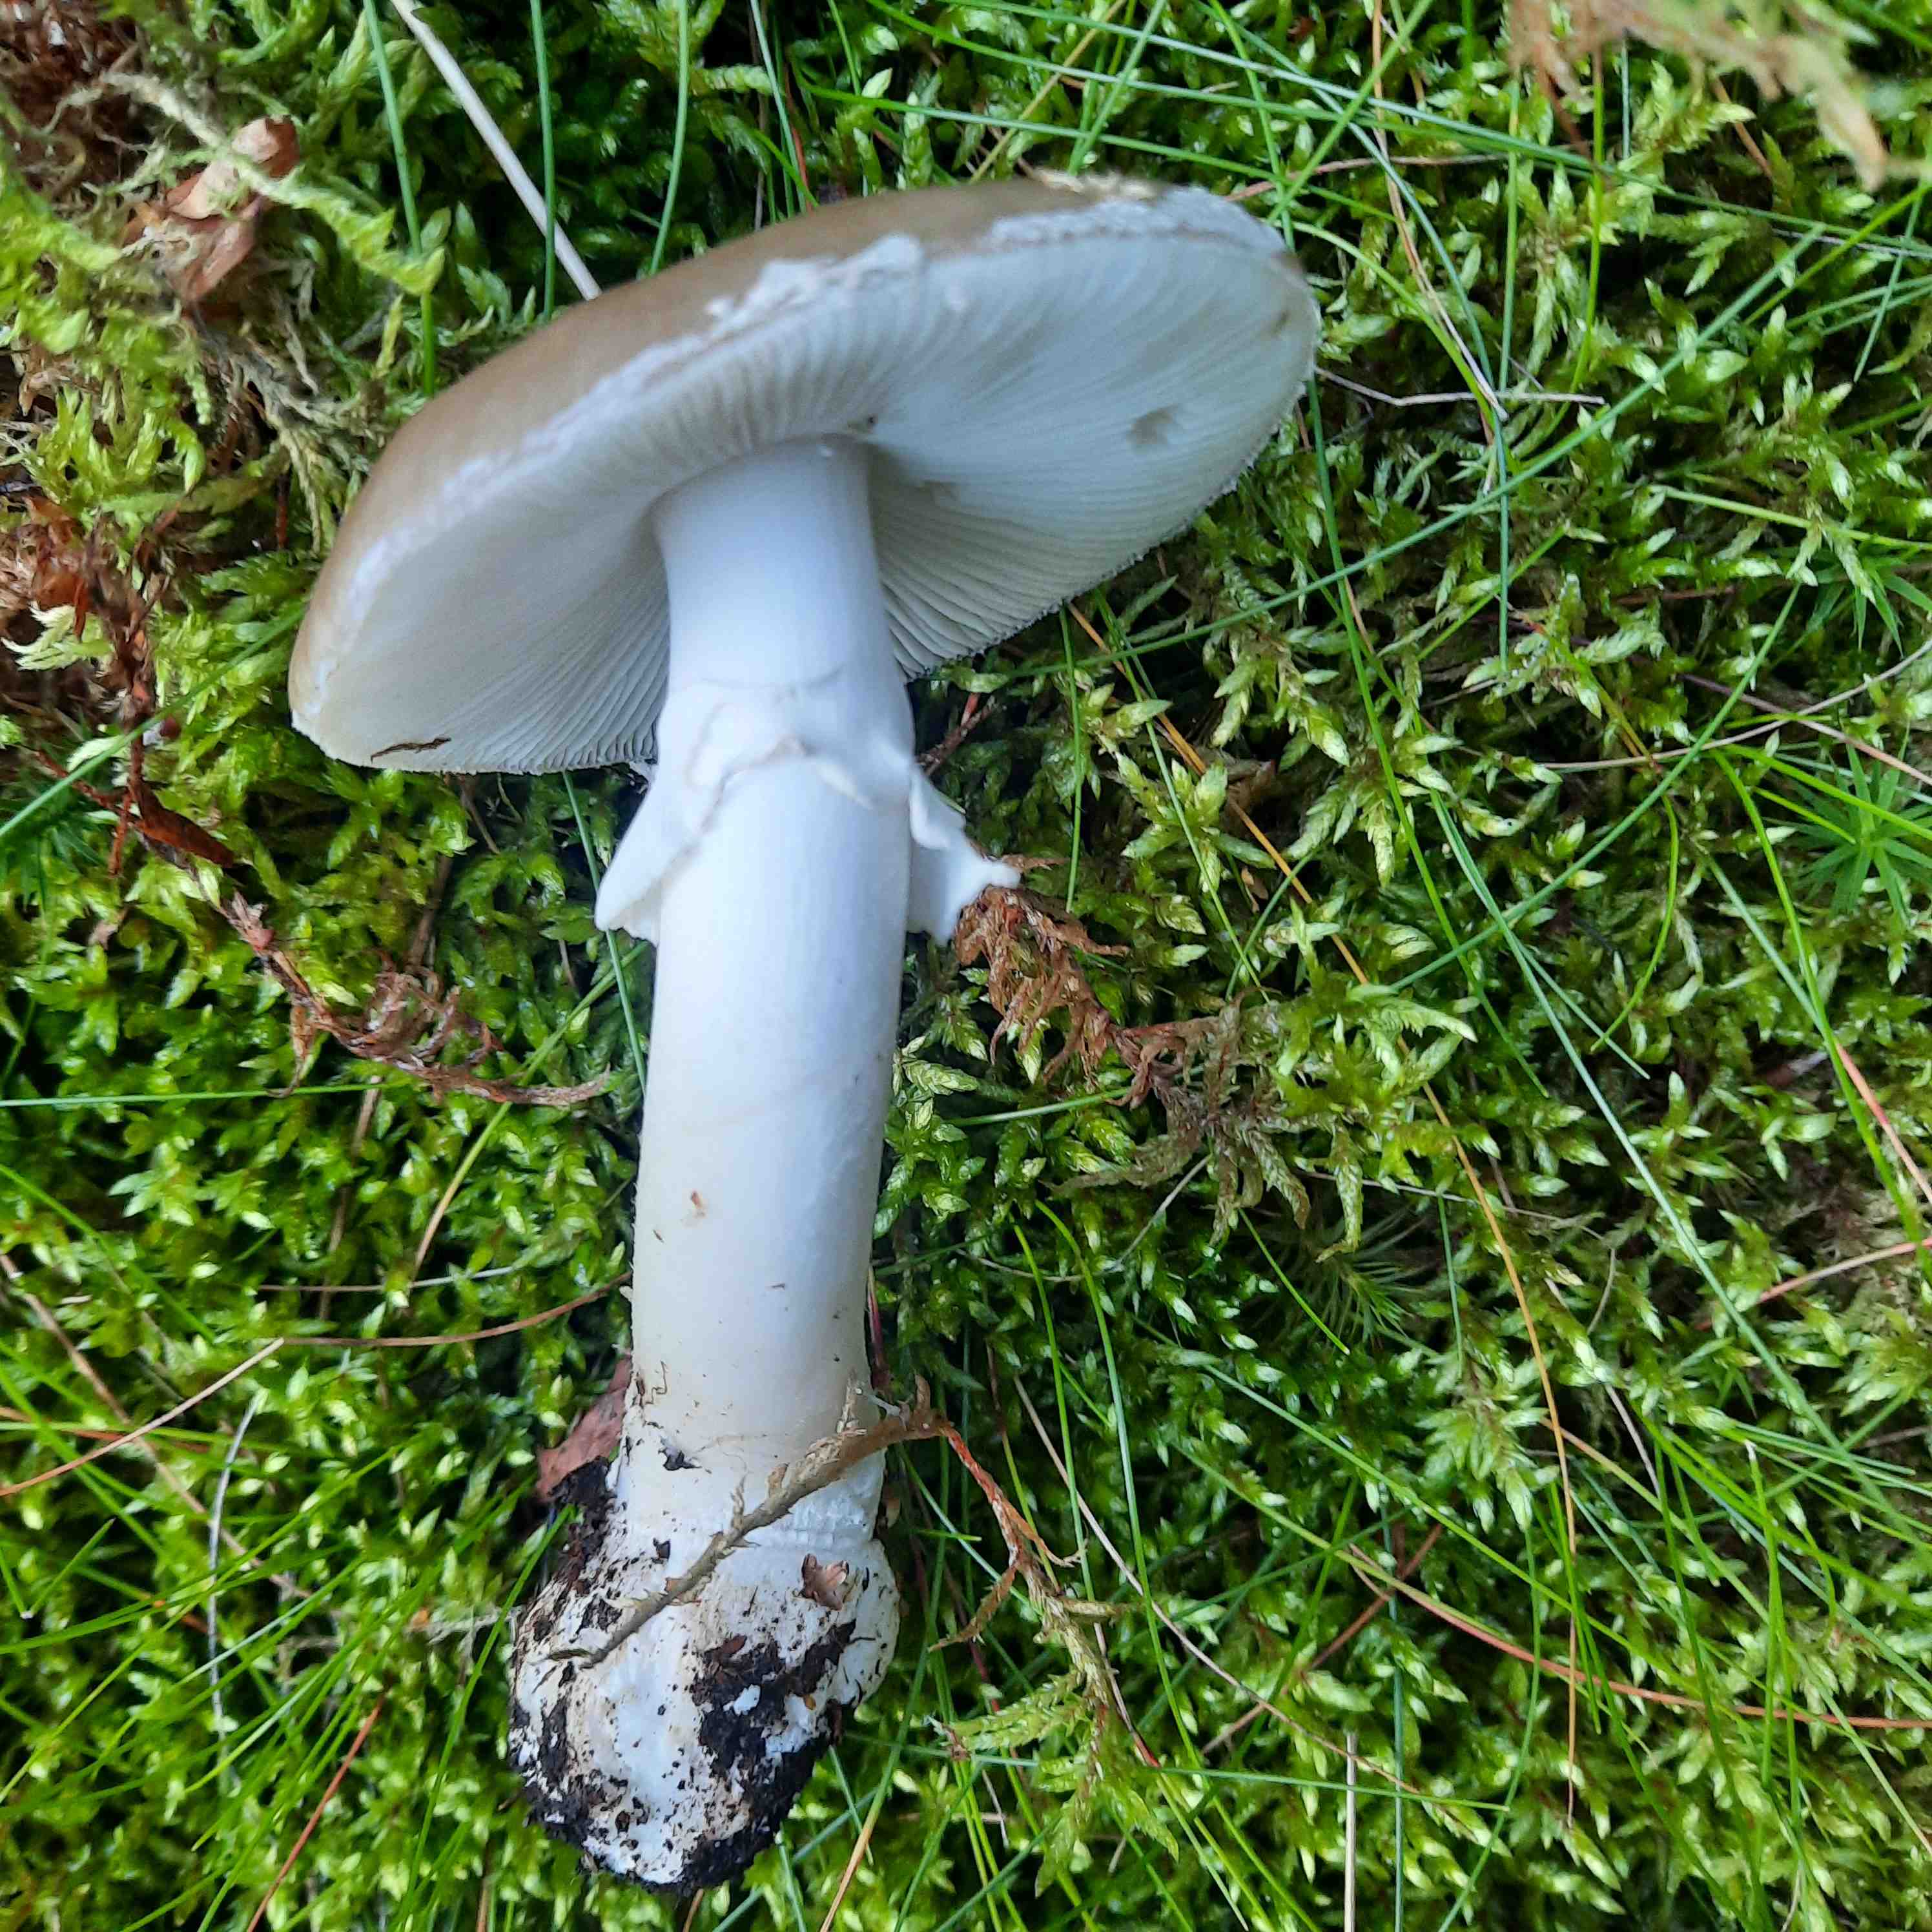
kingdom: Fungi
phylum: Basidiomycota
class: Agaricomycetes
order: Agaricales
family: Amanitaceae
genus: Amanita
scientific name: Amanita
